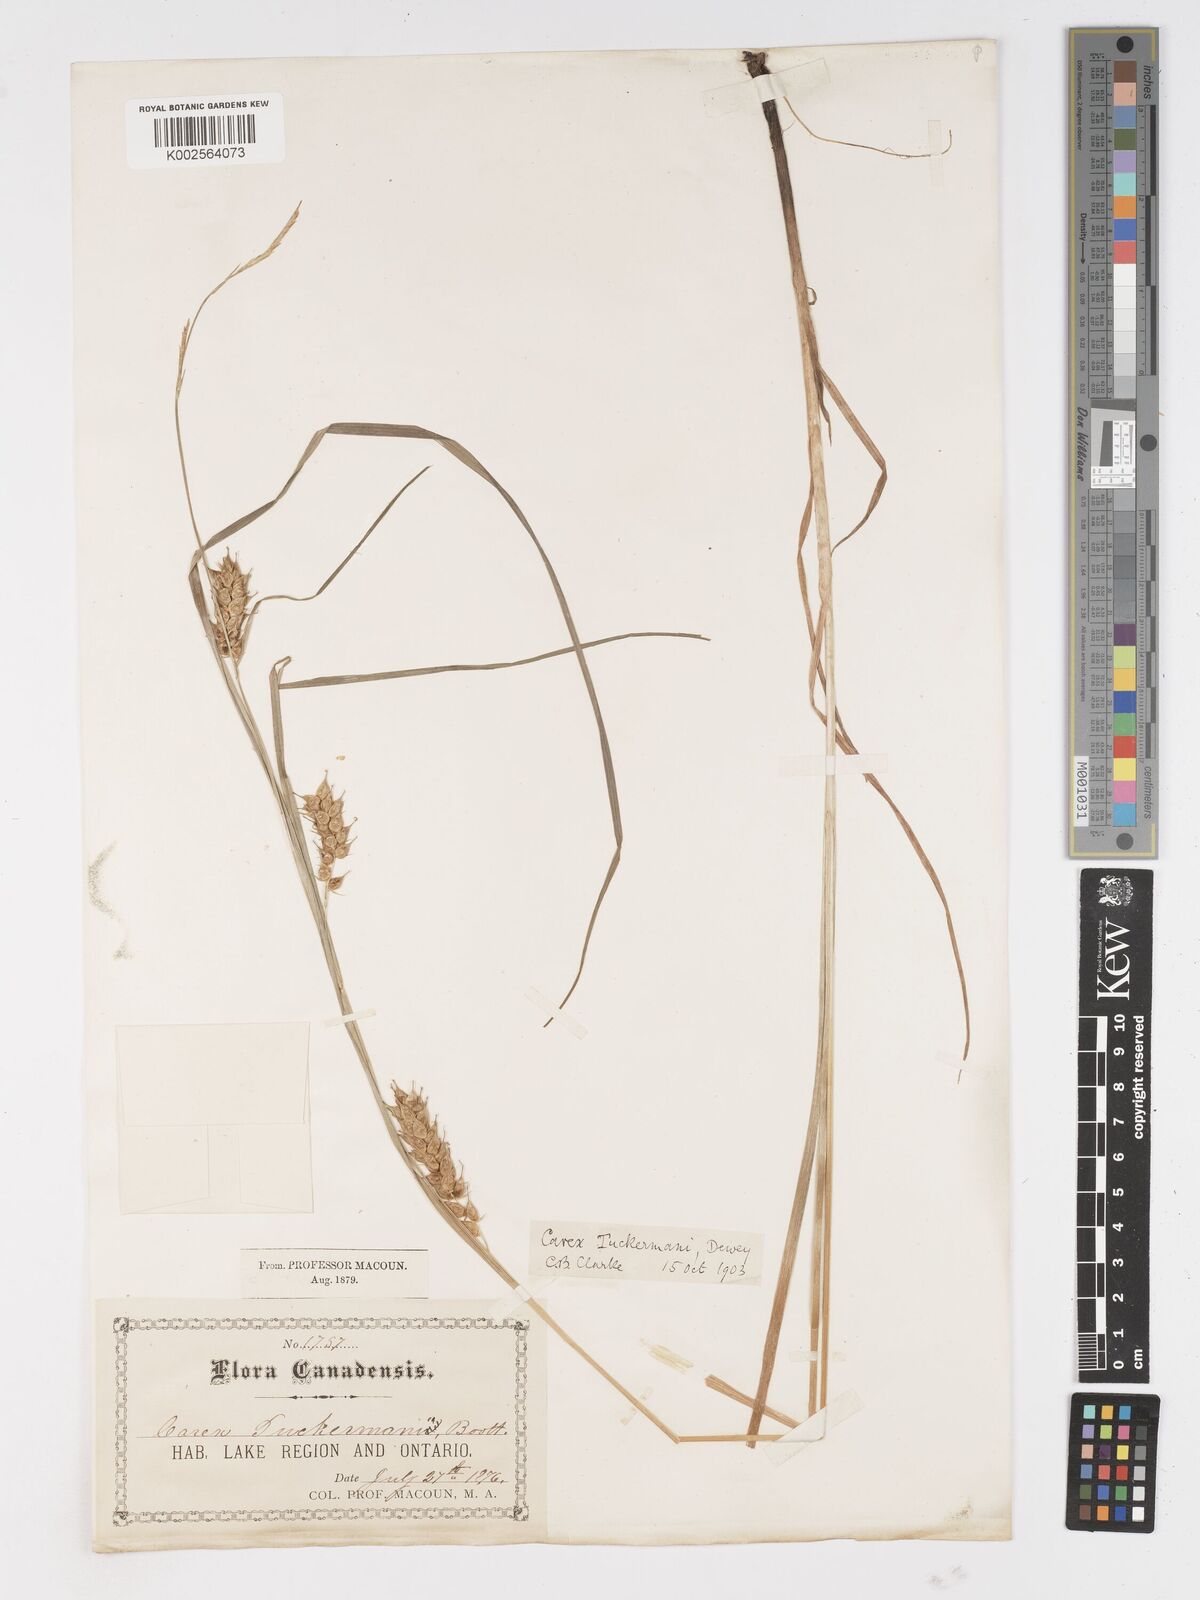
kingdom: Plantae
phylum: Tracheophyta
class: Liliopsida
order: Poales
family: Cyperaceae
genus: Carex
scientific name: Carex tuckermanii
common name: Tuckerman's sedge
